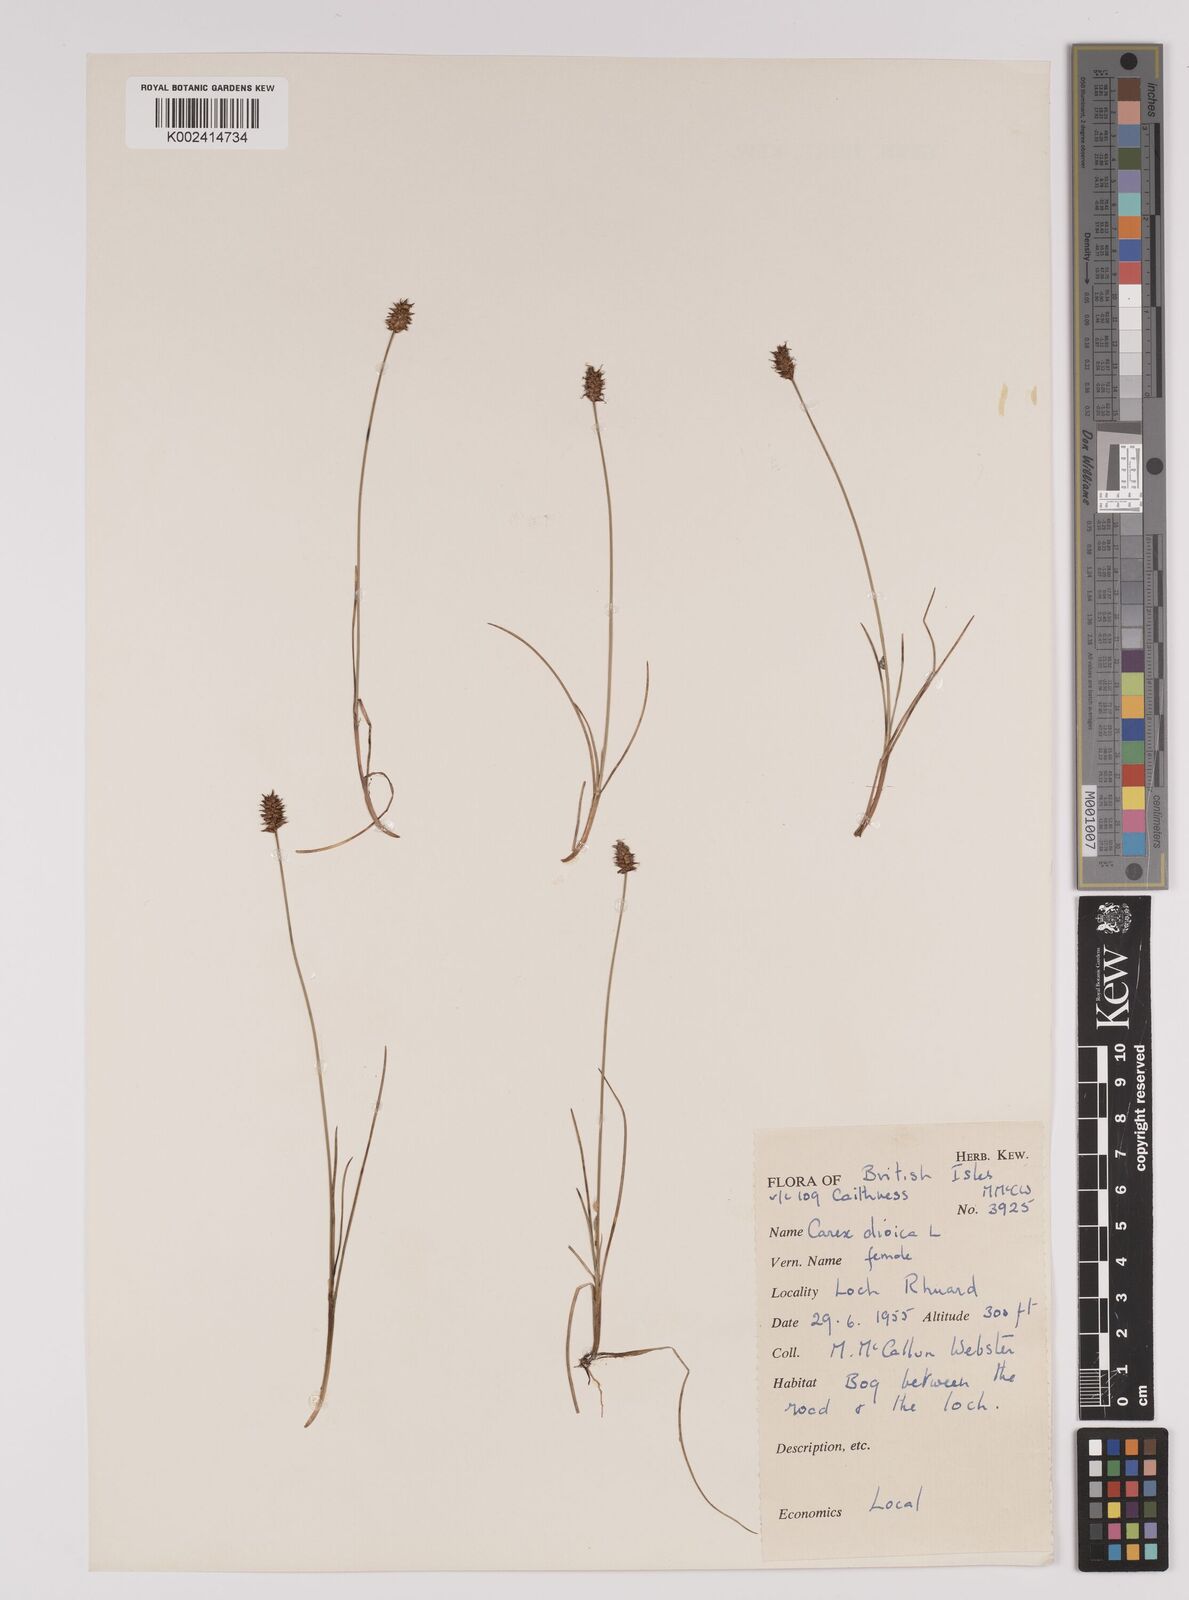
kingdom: Plantae
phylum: Tracheophyta
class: Liliopsida
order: Poales
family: Cyperaceae
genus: Carex
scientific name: Carex dioica
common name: Dioecious sedge
